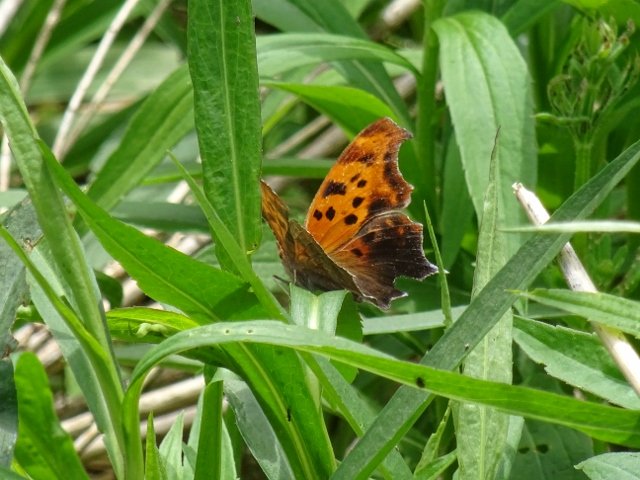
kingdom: Animalia
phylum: Arthropoda
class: Insecta
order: Lepidoptera
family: Nymphalidae
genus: Polygonia
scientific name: Polygonia interrogationis
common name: Question Mark
